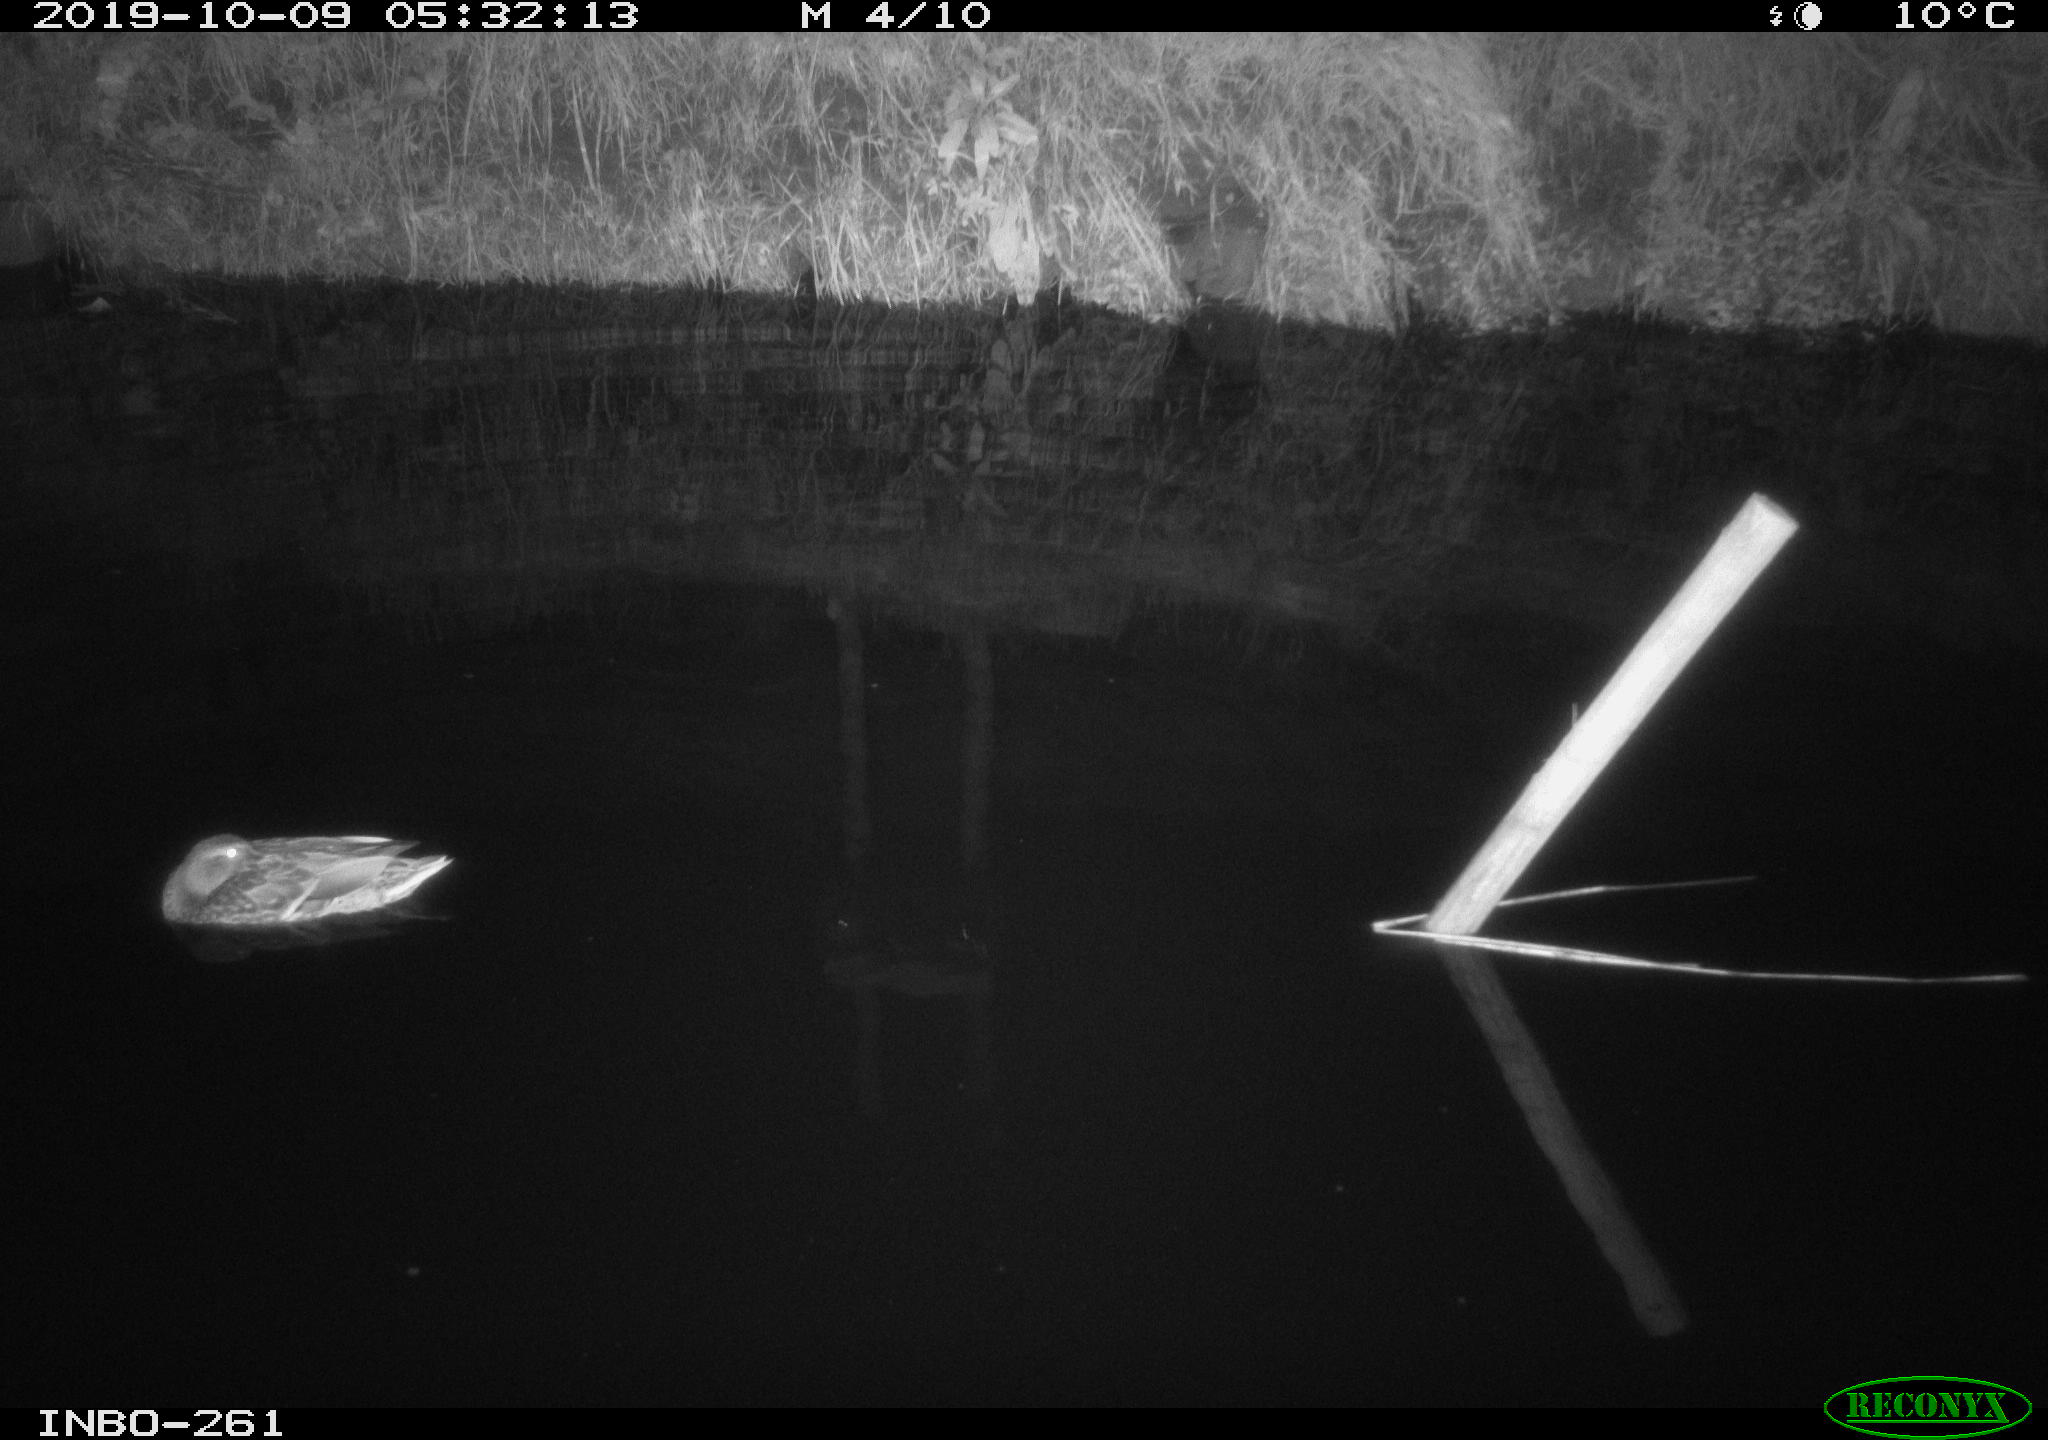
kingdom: Animalia
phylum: Chordata
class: Aves
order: Anseriformes
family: Anatidae
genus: Anas
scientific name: Anas platyrhynchos
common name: Mallard
